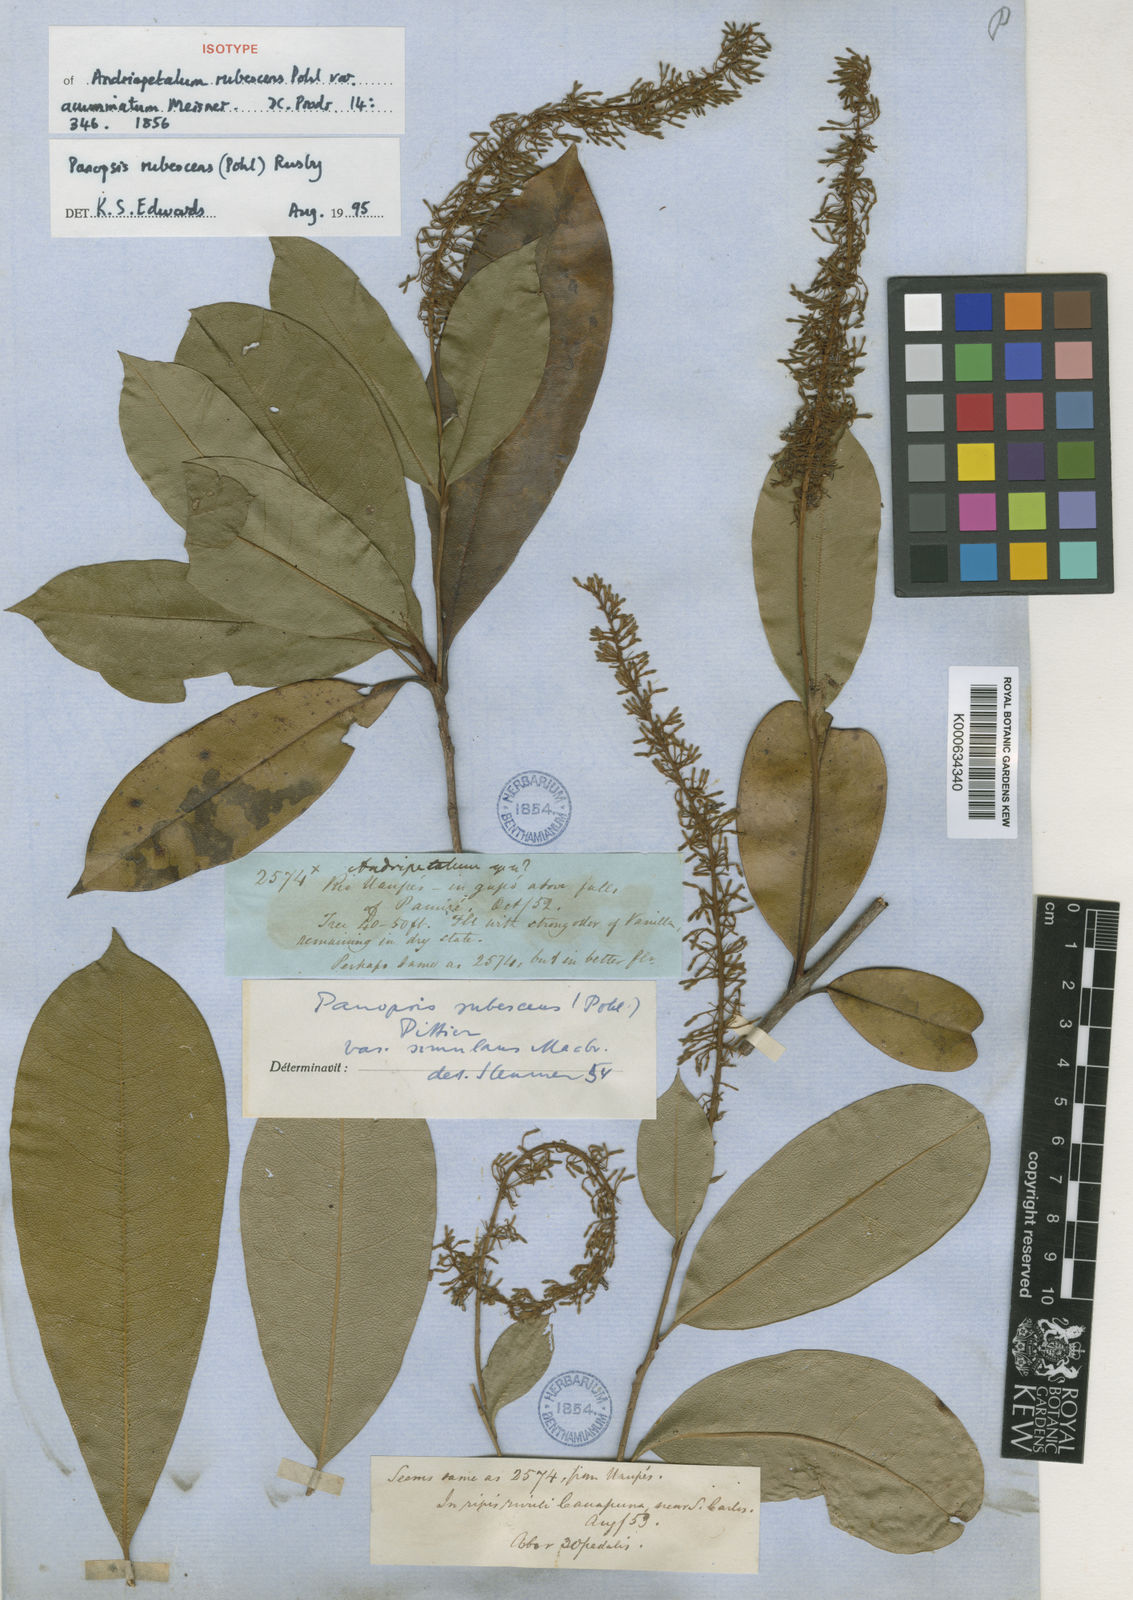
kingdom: Plantae
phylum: Tracheophyta
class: Magnoliopsida
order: Proteales
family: Proteaceae
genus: Panopsis
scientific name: Panopsis
